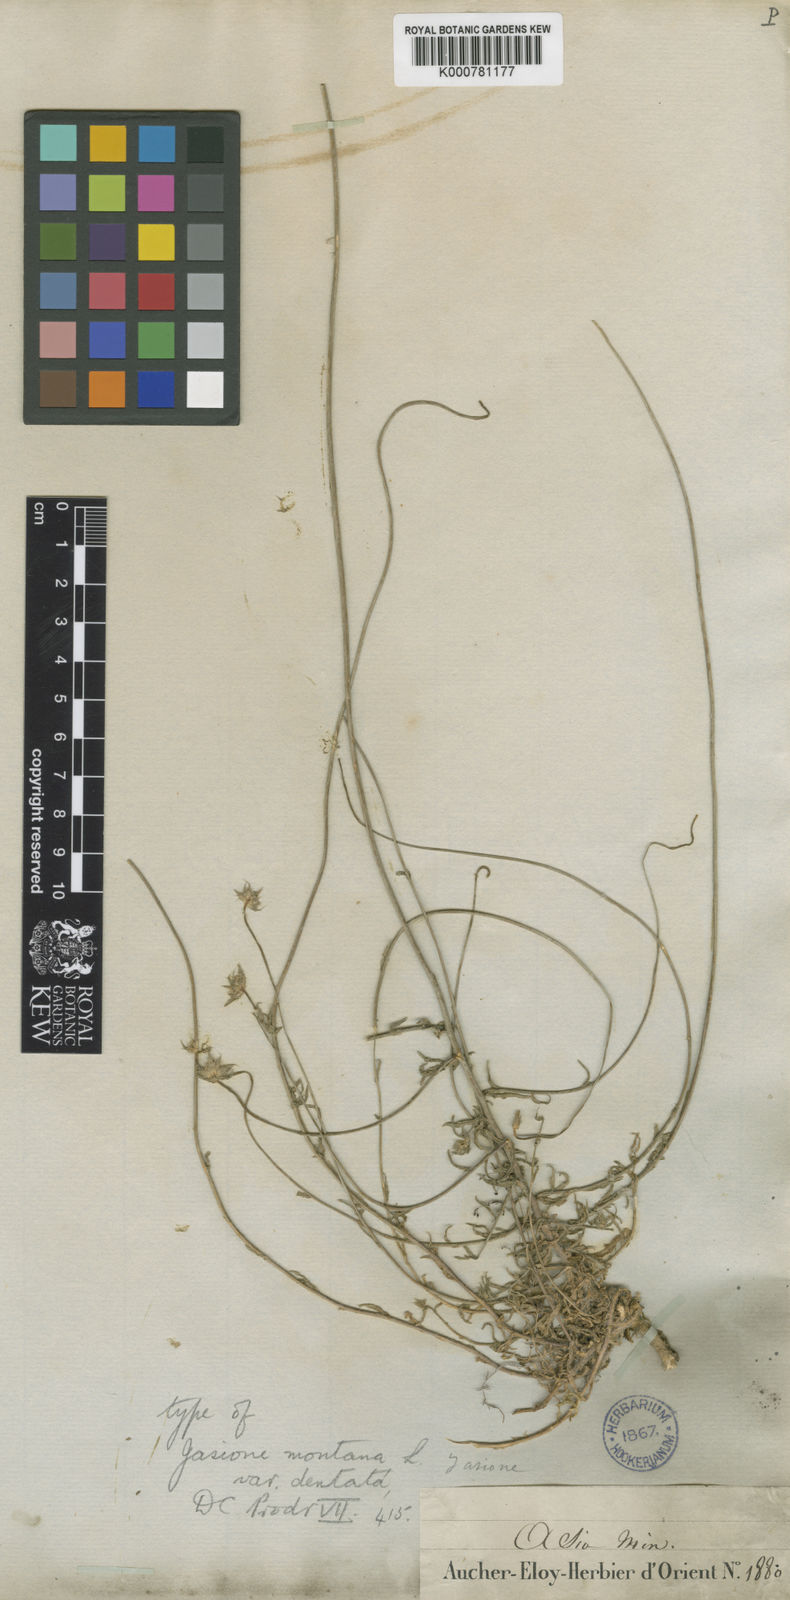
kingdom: Plantae
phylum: Tracheophyta
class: Magnoliopsida
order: Asterales
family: Campanulaceae
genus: Jasione
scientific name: Jasione heldreichii
